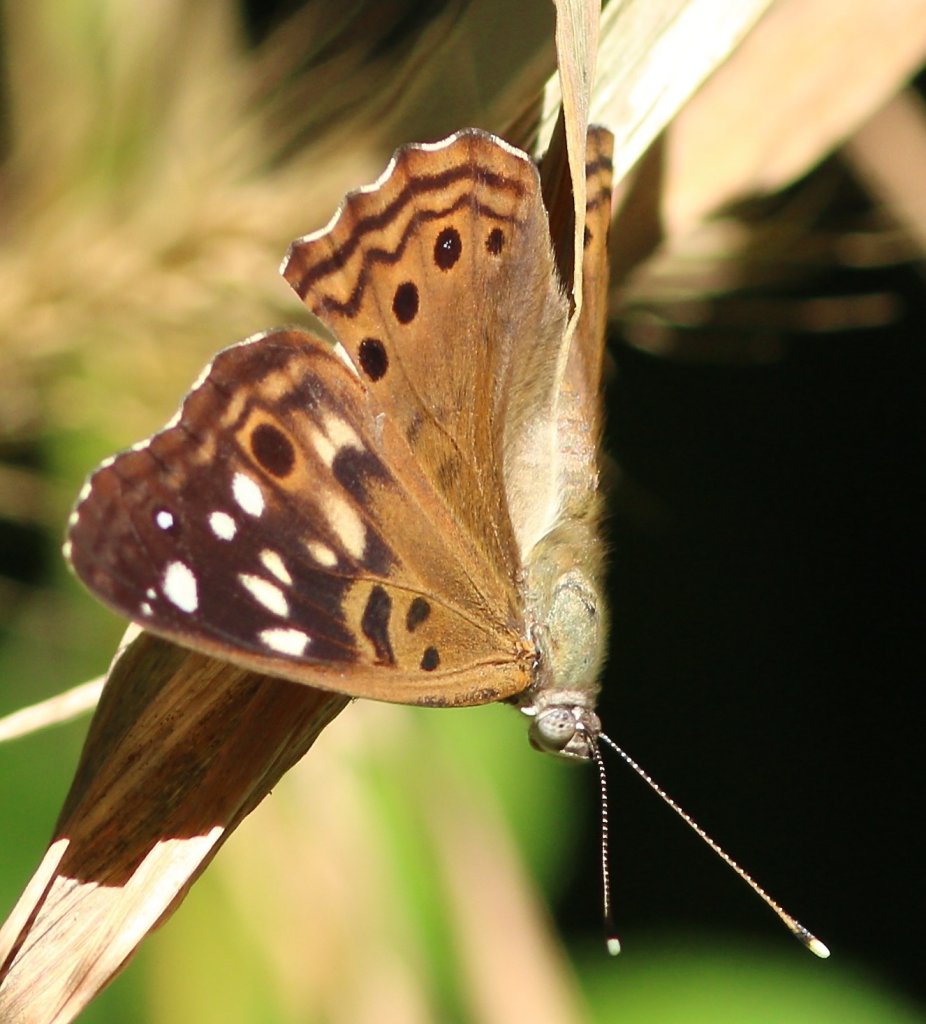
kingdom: Animalia
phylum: Arthropoda
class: Insecta
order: Lepidoptera
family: Nymphalidae
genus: Asterocampa
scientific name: Asterocampa celtis
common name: Hackberry Emperor
